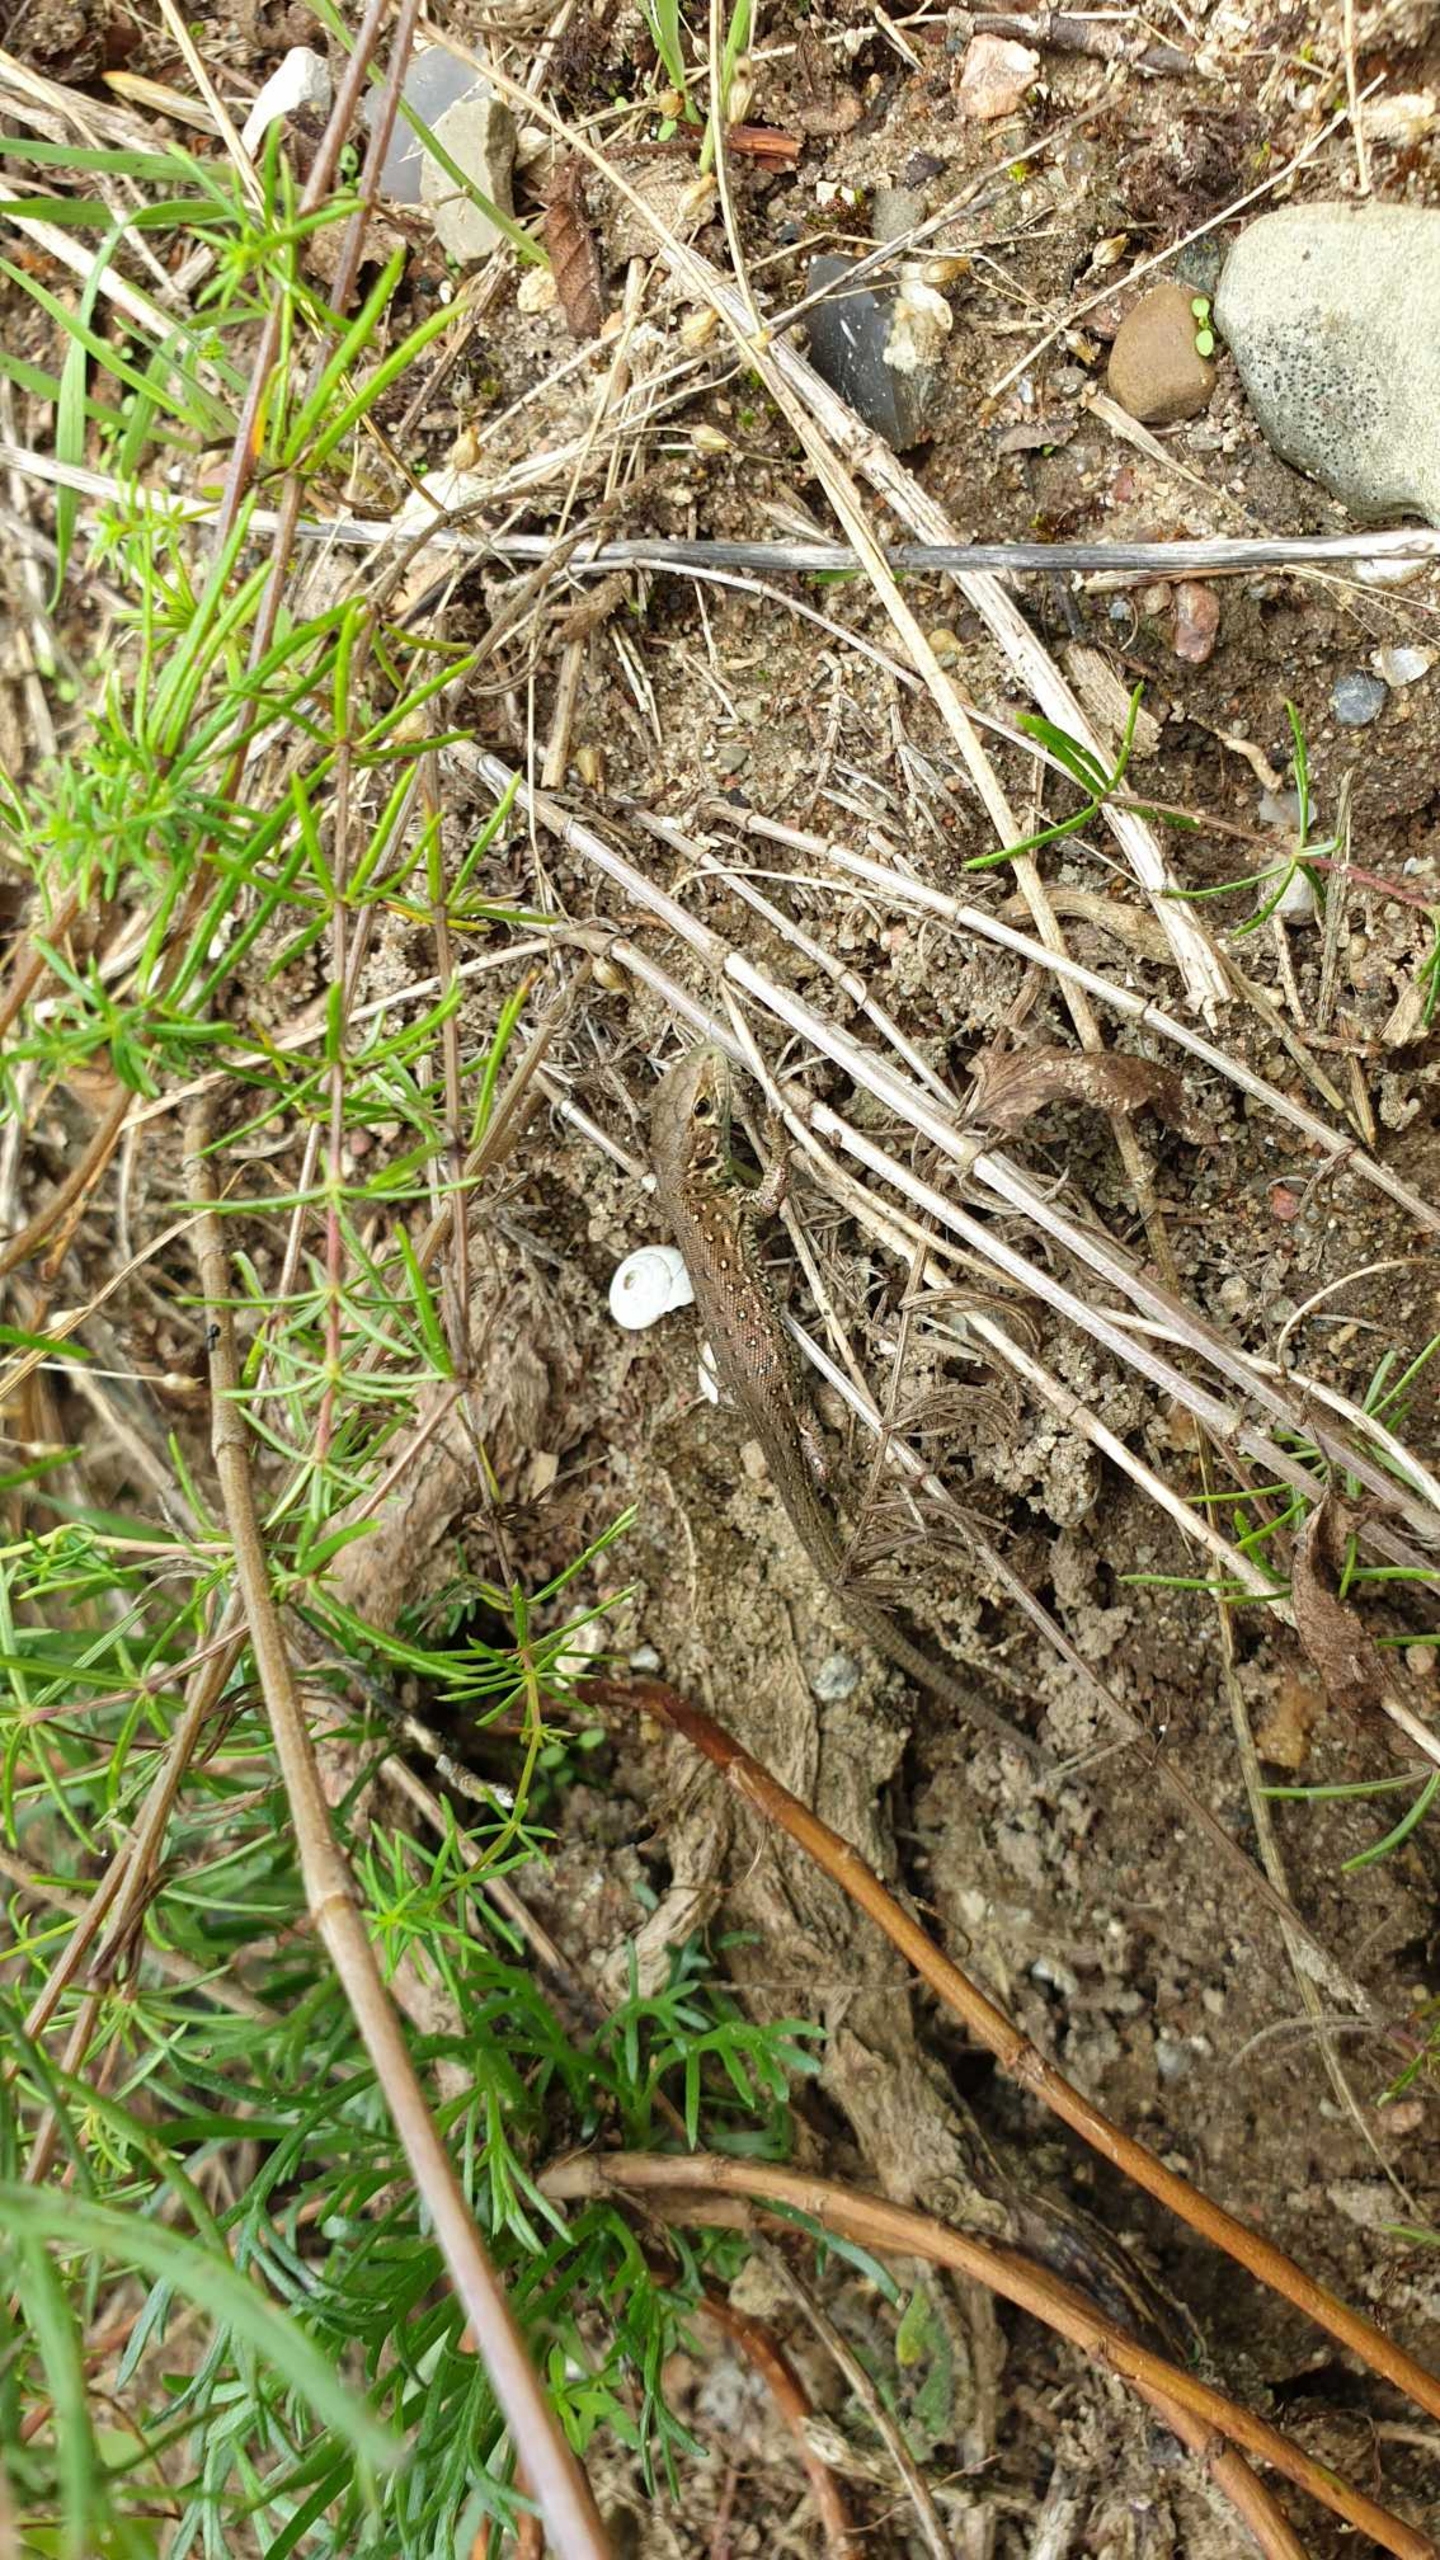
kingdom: Animalia
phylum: Chordata
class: Squamata
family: Lacertidae
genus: Lacerta
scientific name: Lacerta agilis
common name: Markfirben
